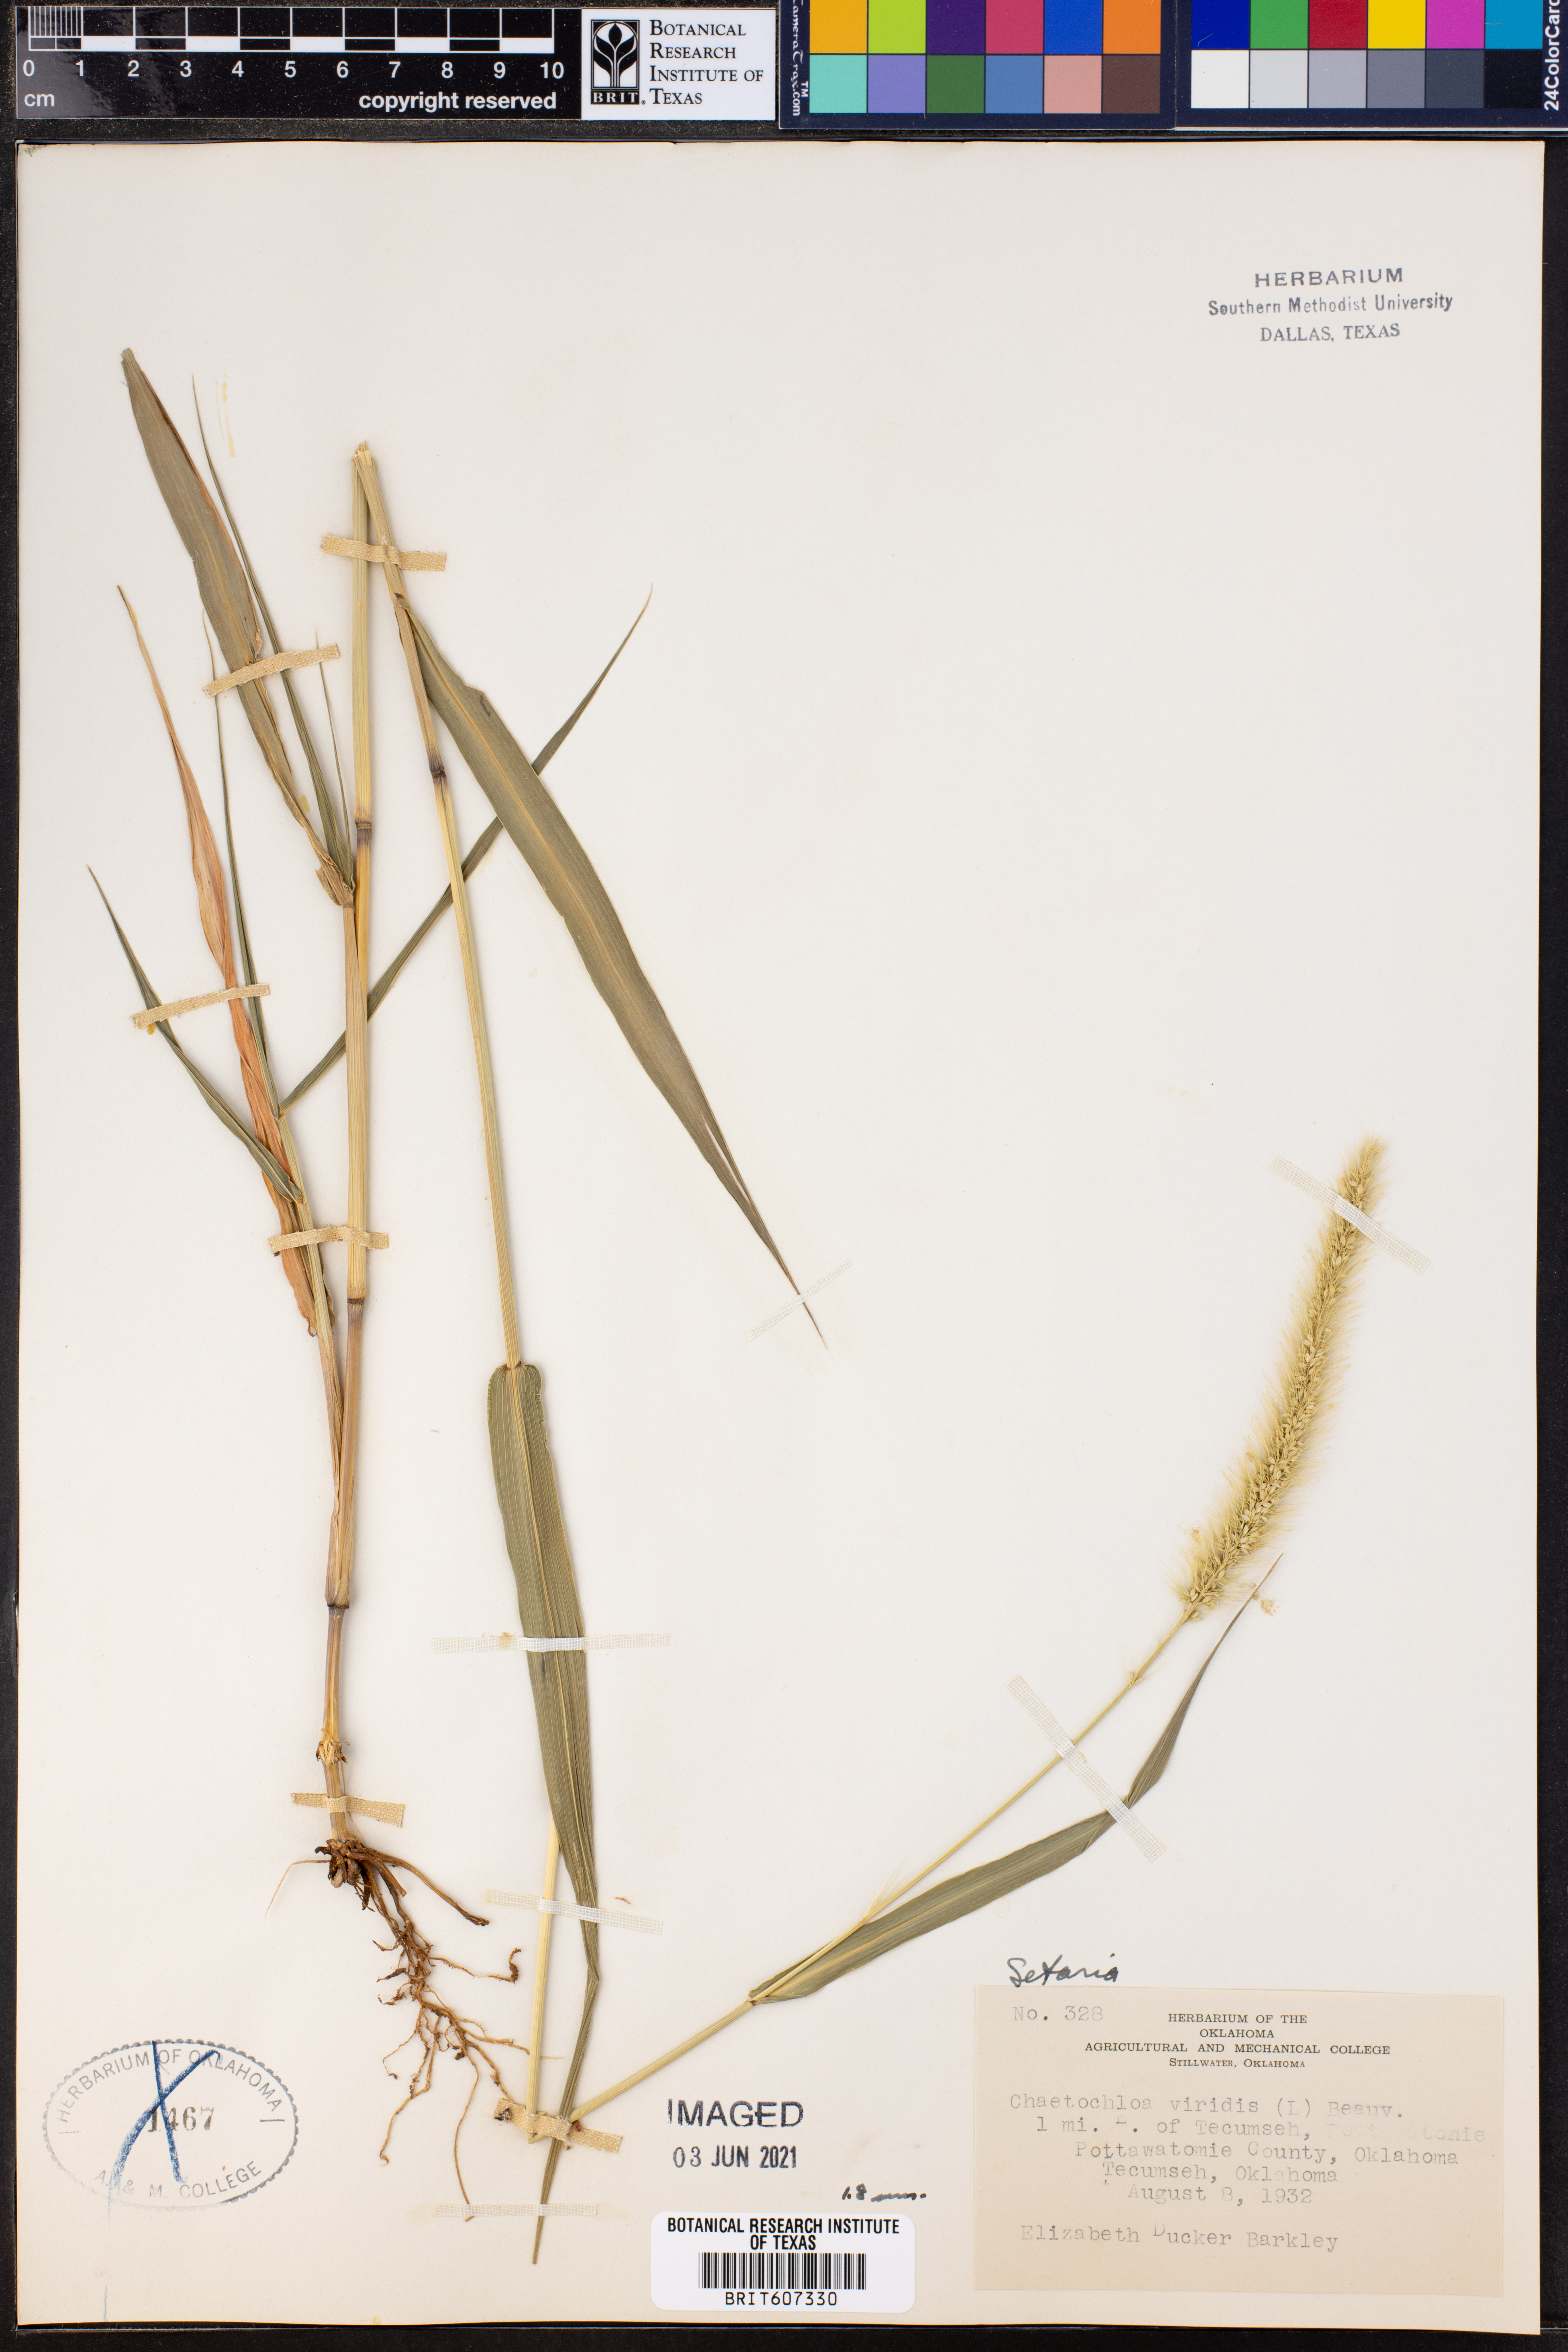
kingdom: Plantae
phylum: Tracheophyta
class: Liliopsida
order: Poales
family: Poaceae
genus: Setaria
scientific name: Setaria viridis
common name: Green bristlegrass
